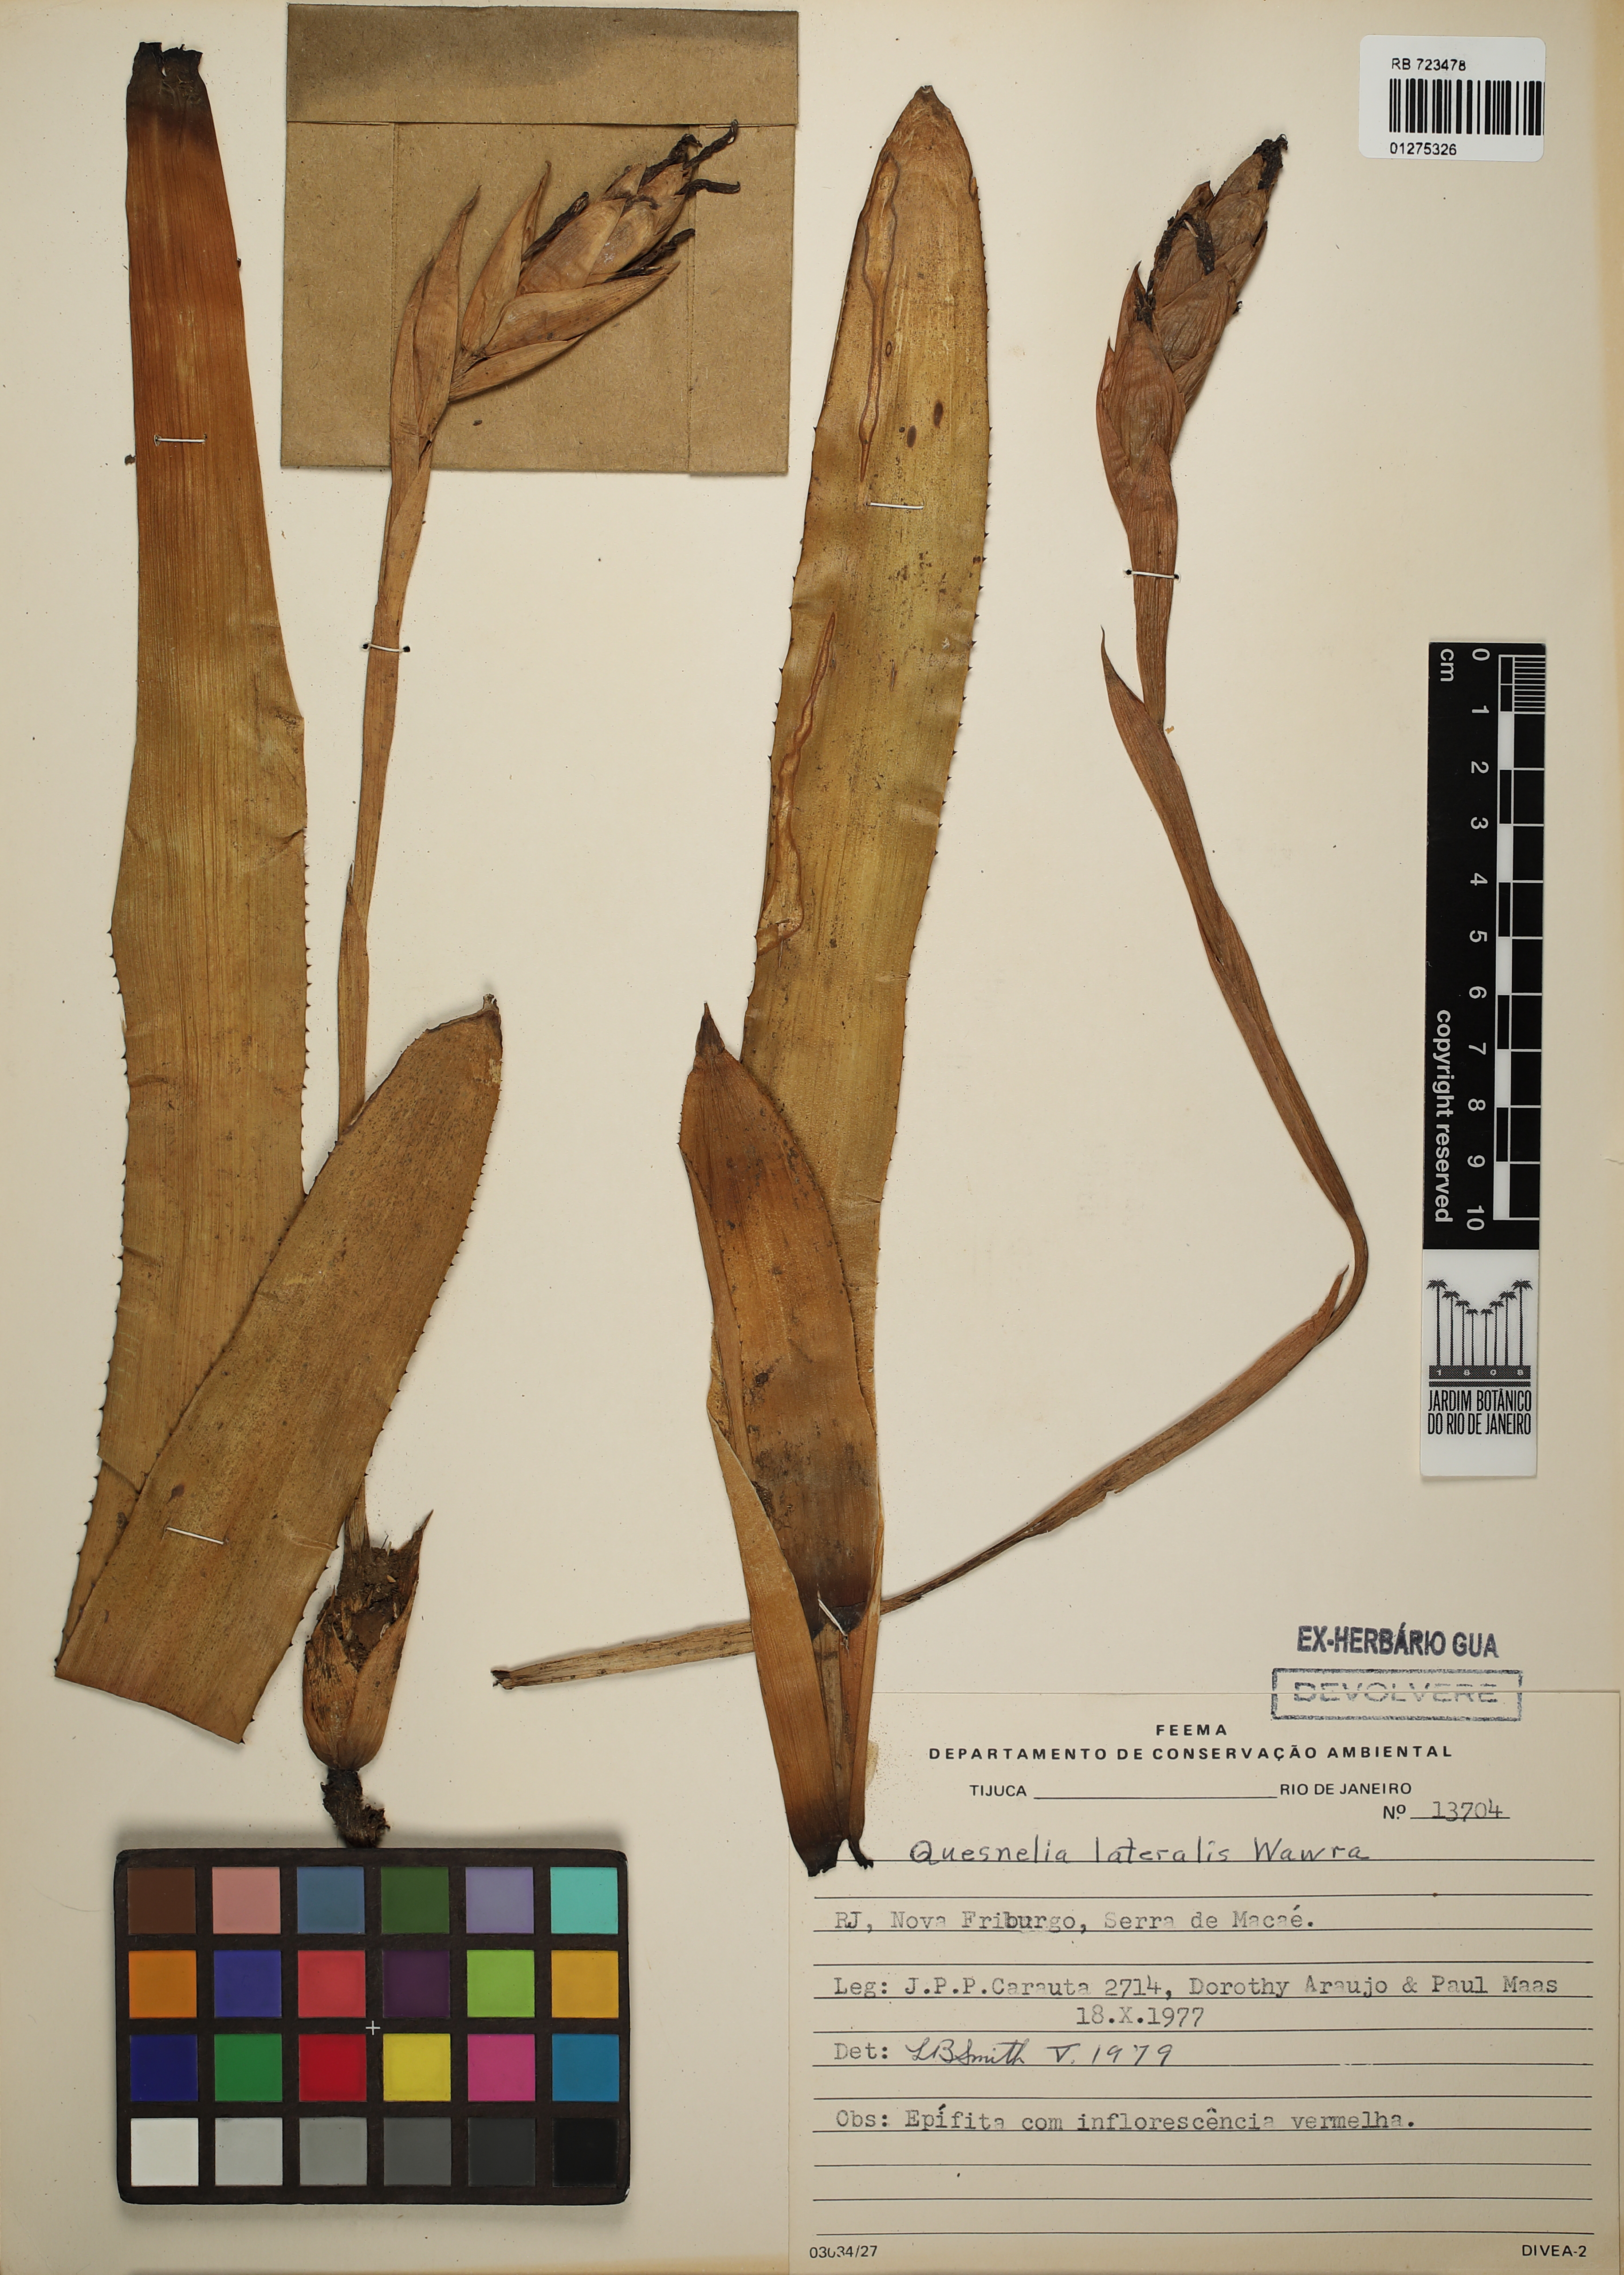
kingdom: Plantae
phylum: Tracheophyta
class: Liliopsida
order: Poales
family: Bromeliaceae
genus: Quesnelia
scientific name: Quesnelia lateralis
